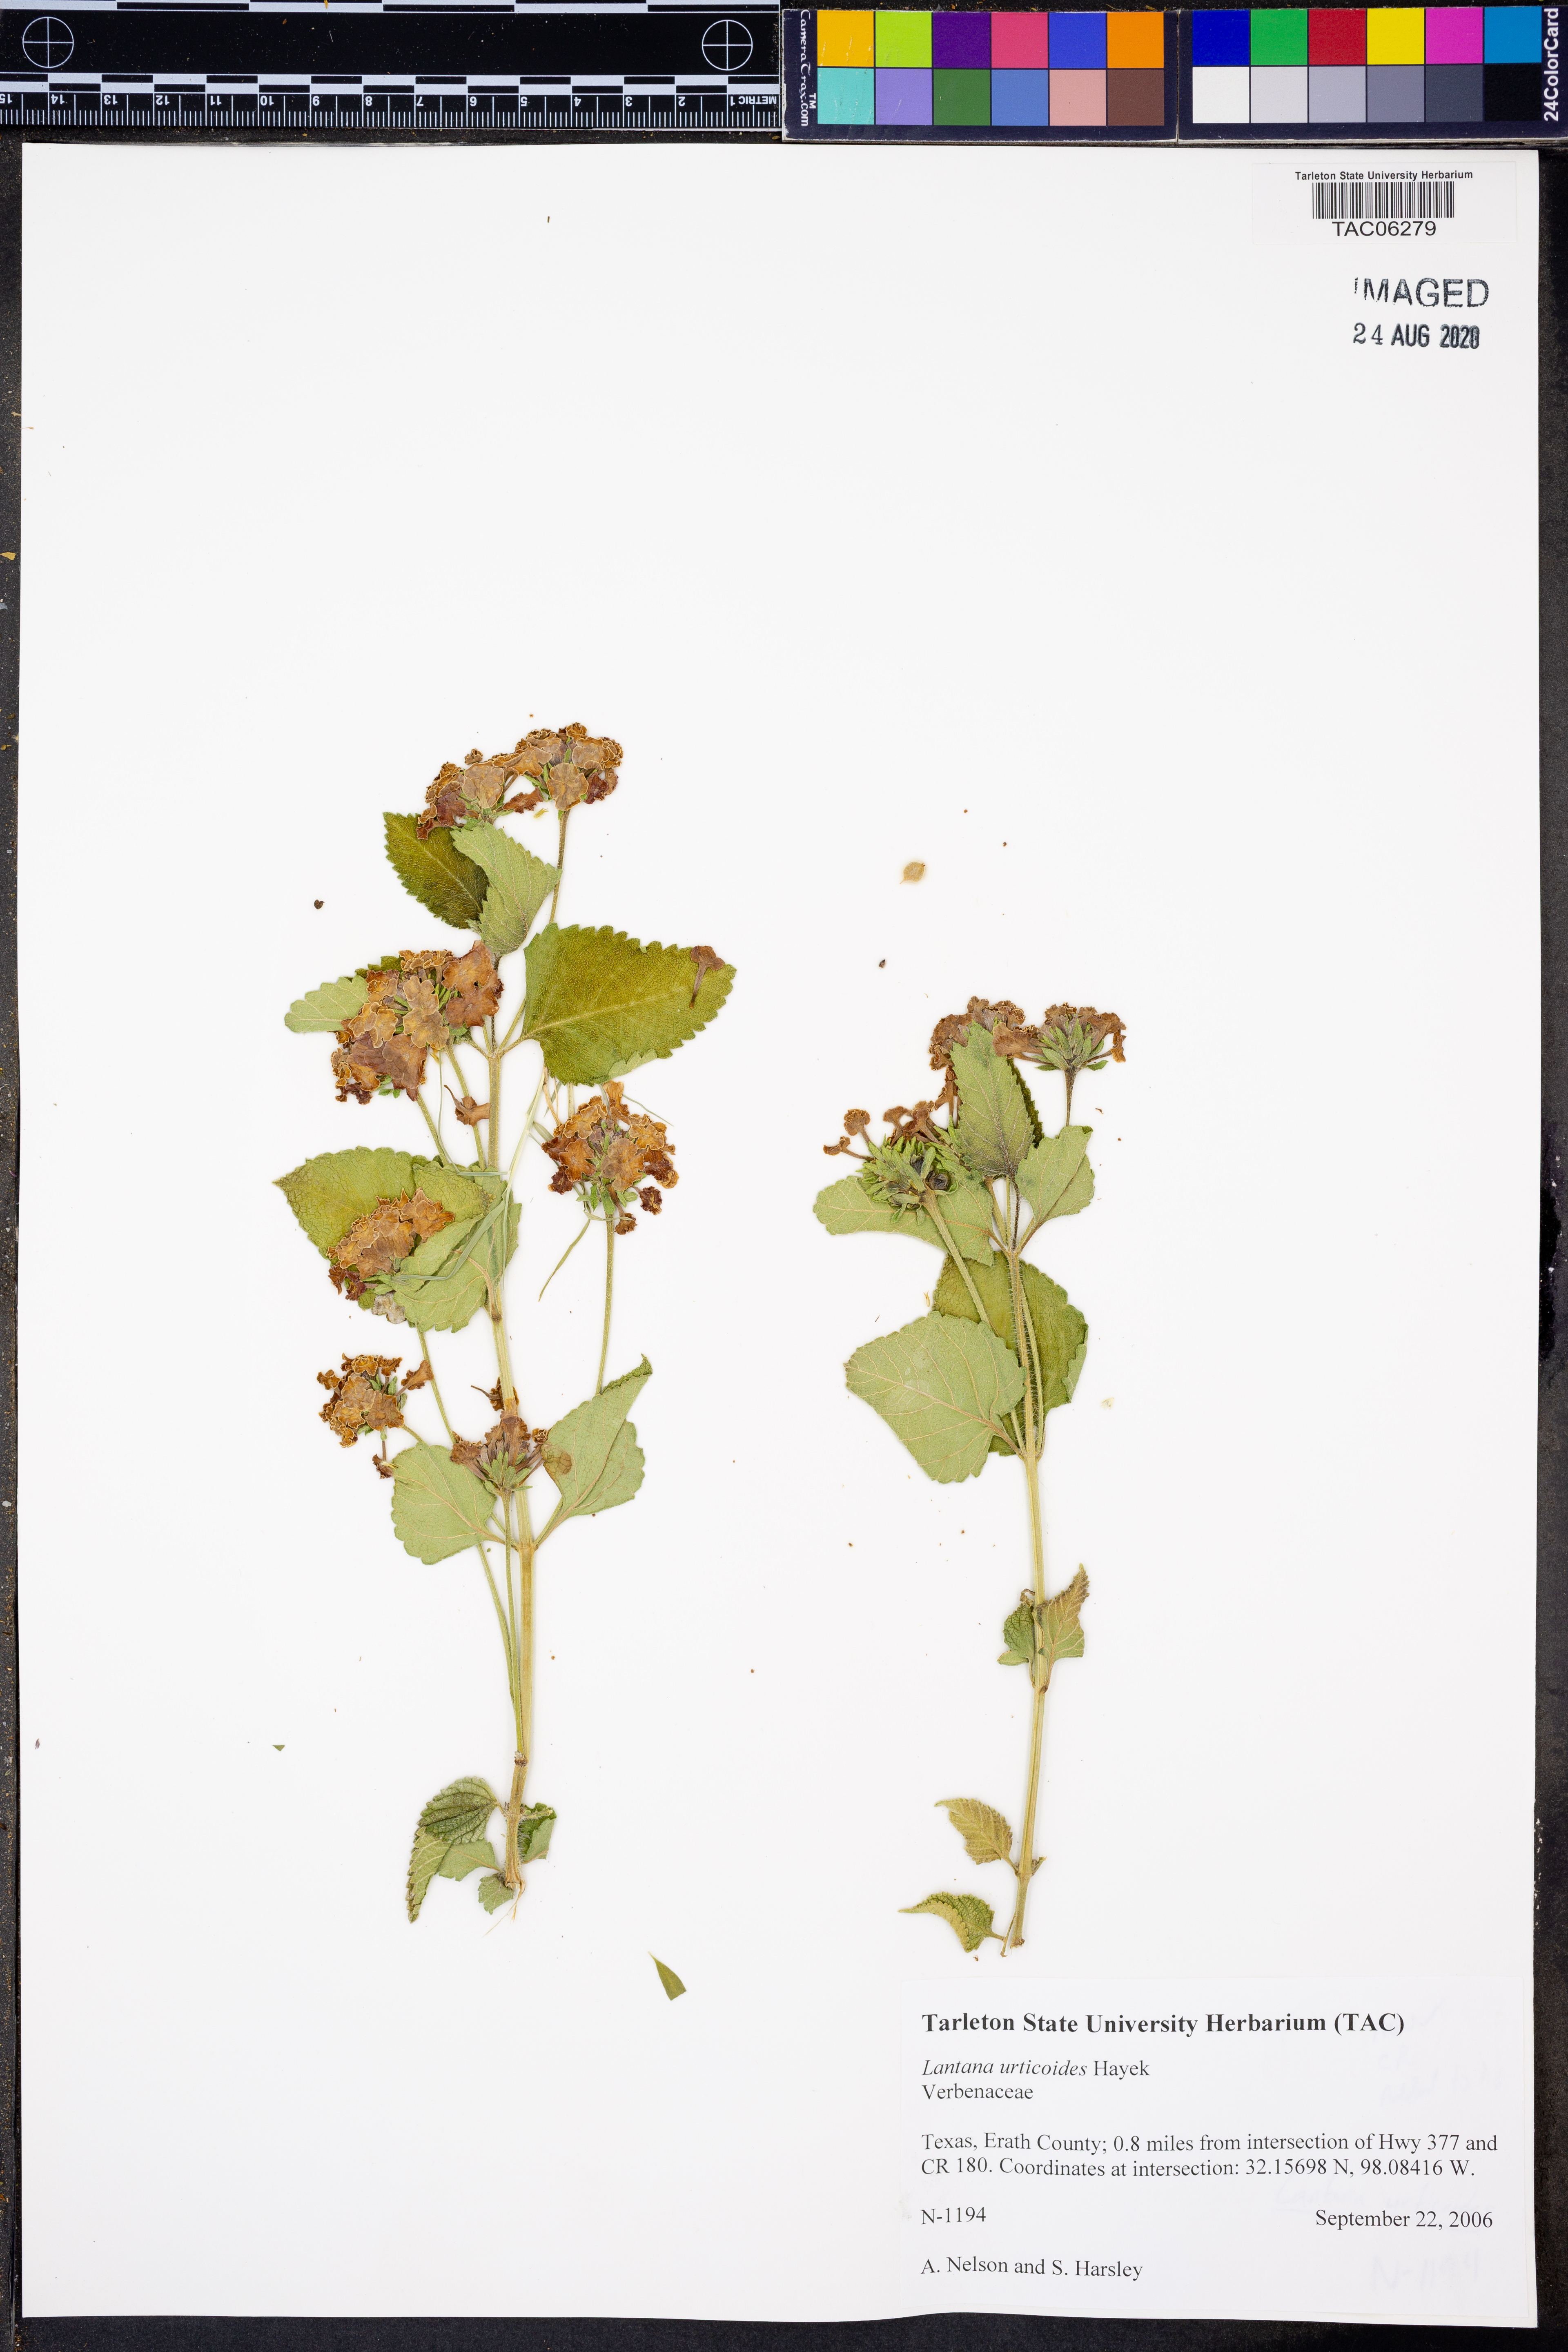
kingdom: Plantae
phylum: Tracheophyta
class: Magnoliopsida
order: Lamiales
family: Verbenaceae
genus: Lantana
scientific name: Lantana urticoides
